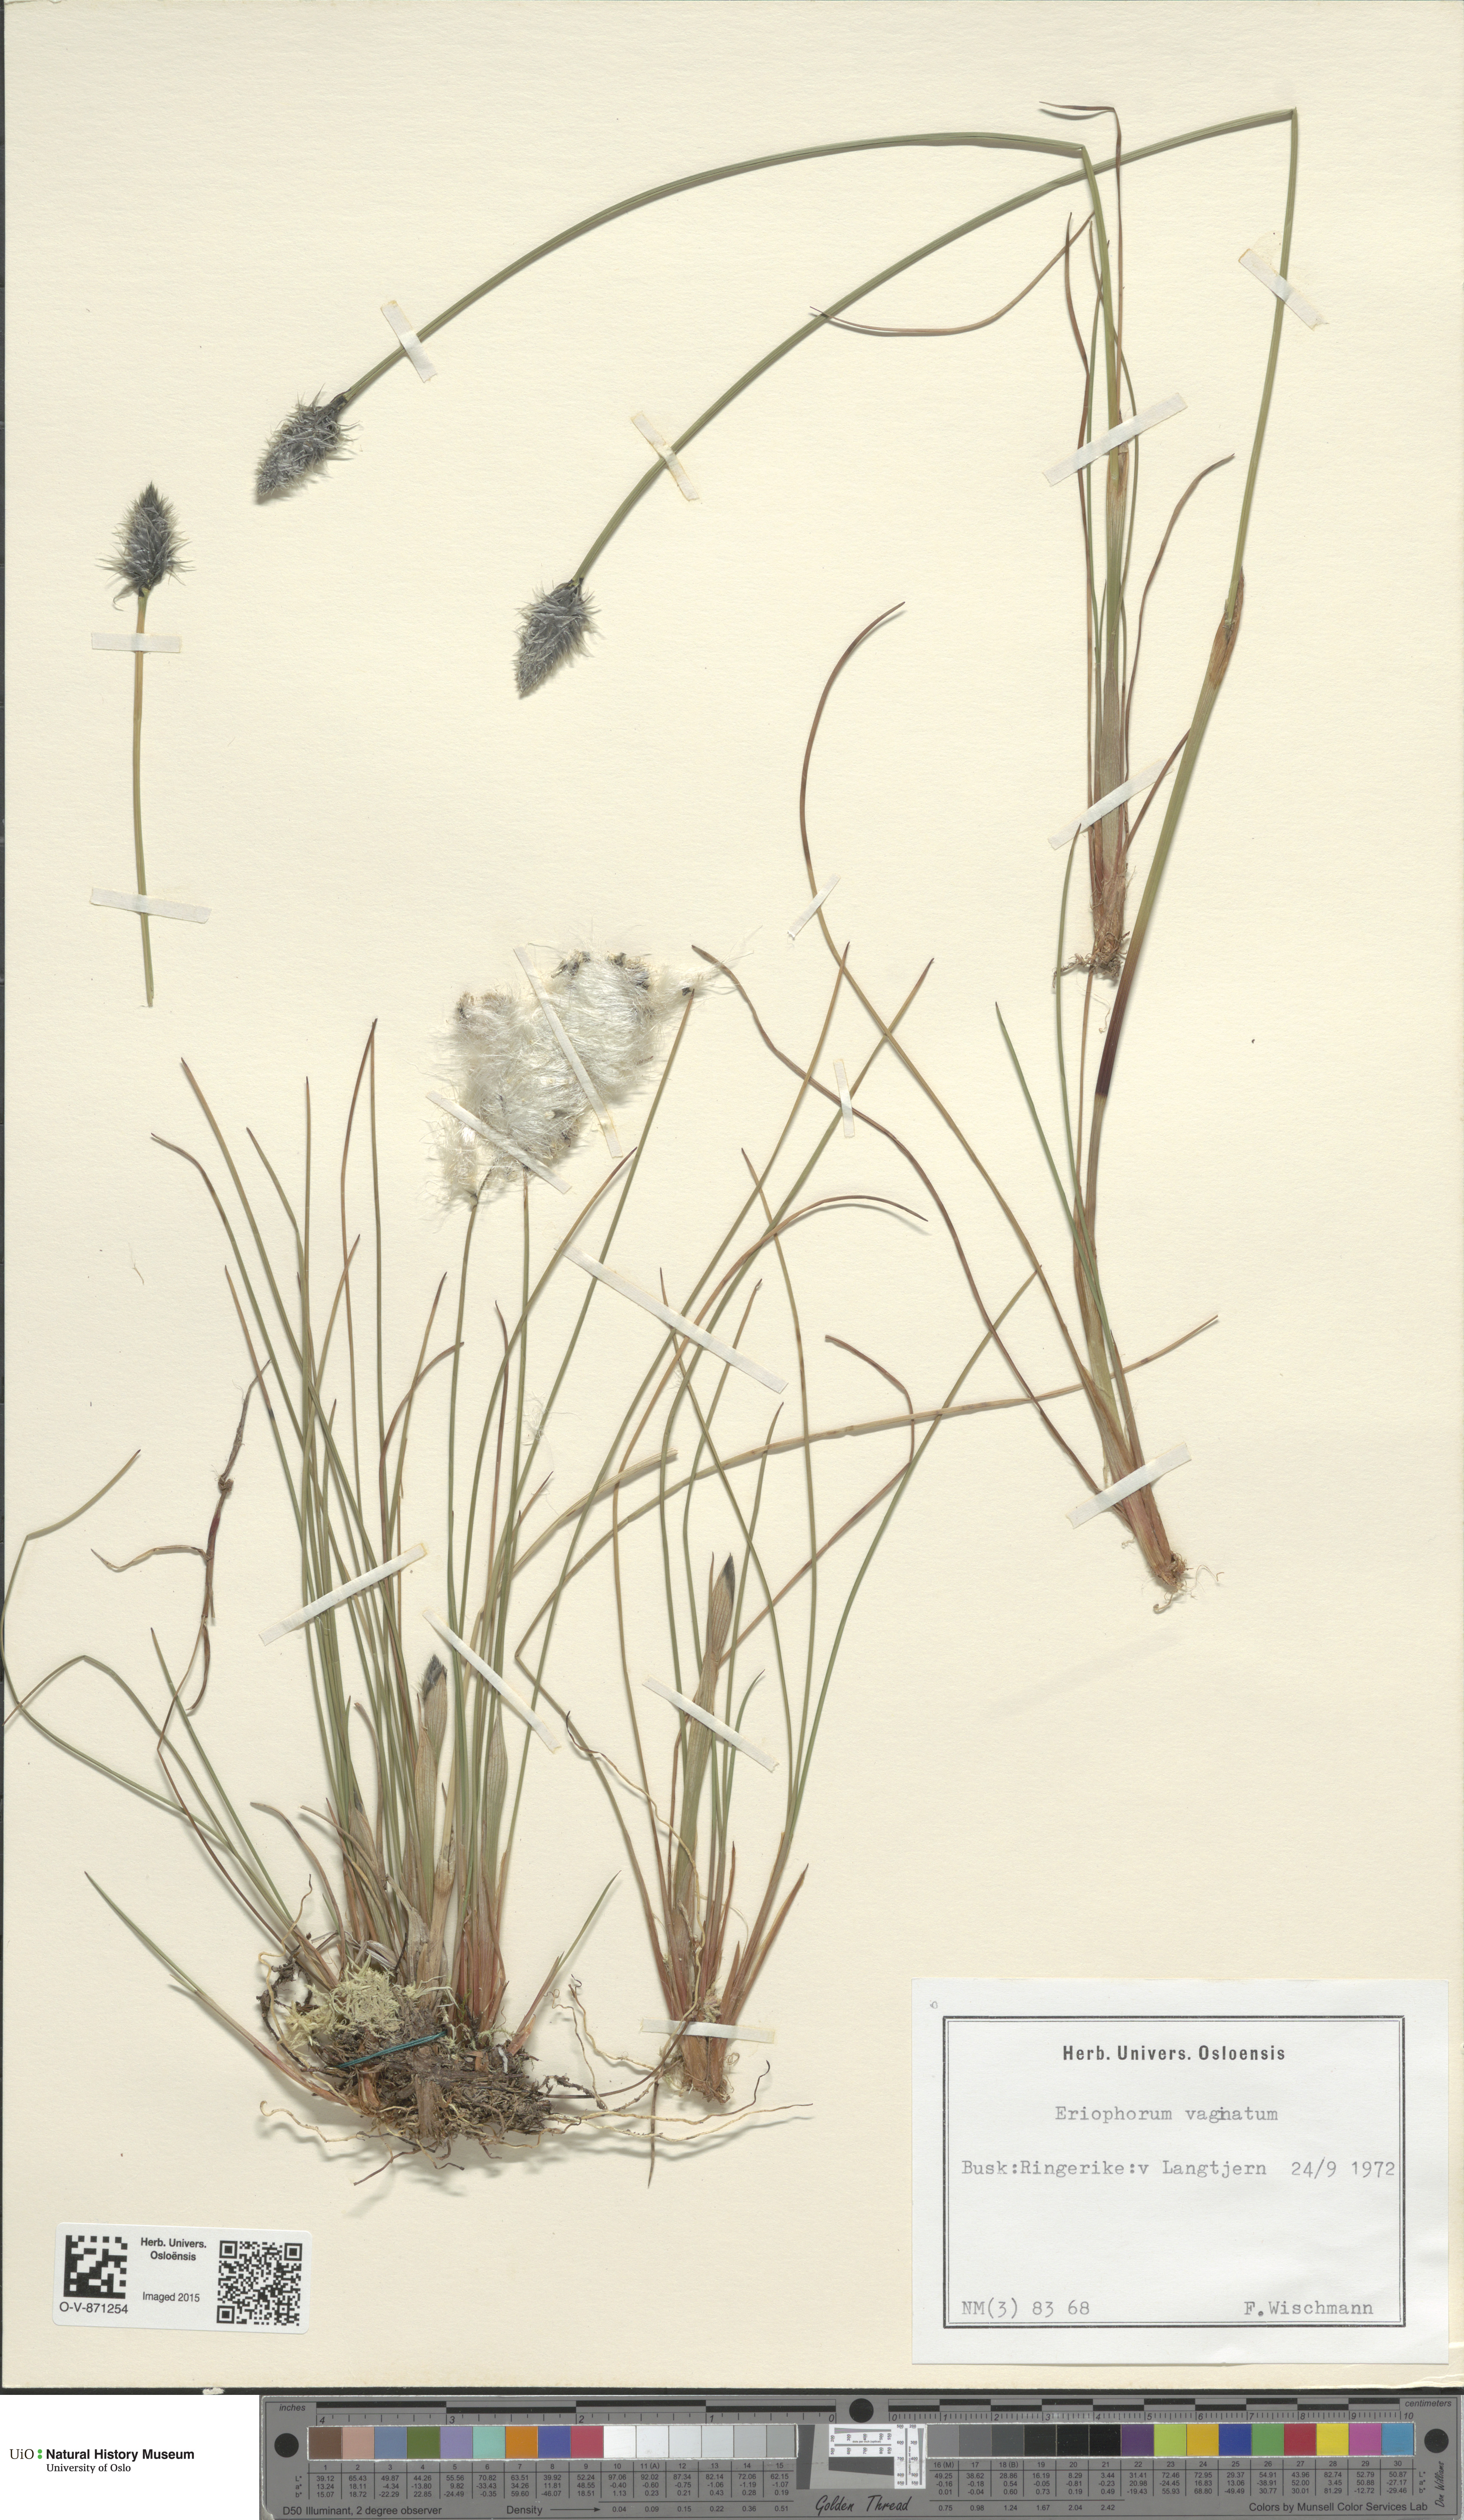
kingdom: Plantae
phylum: Tracheophyta
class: Liliopsida
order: Poales
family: Cyperaceae
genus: Eriophorum
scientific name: Eriophorum vaginatum
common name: Hare's-tail cottongrass
